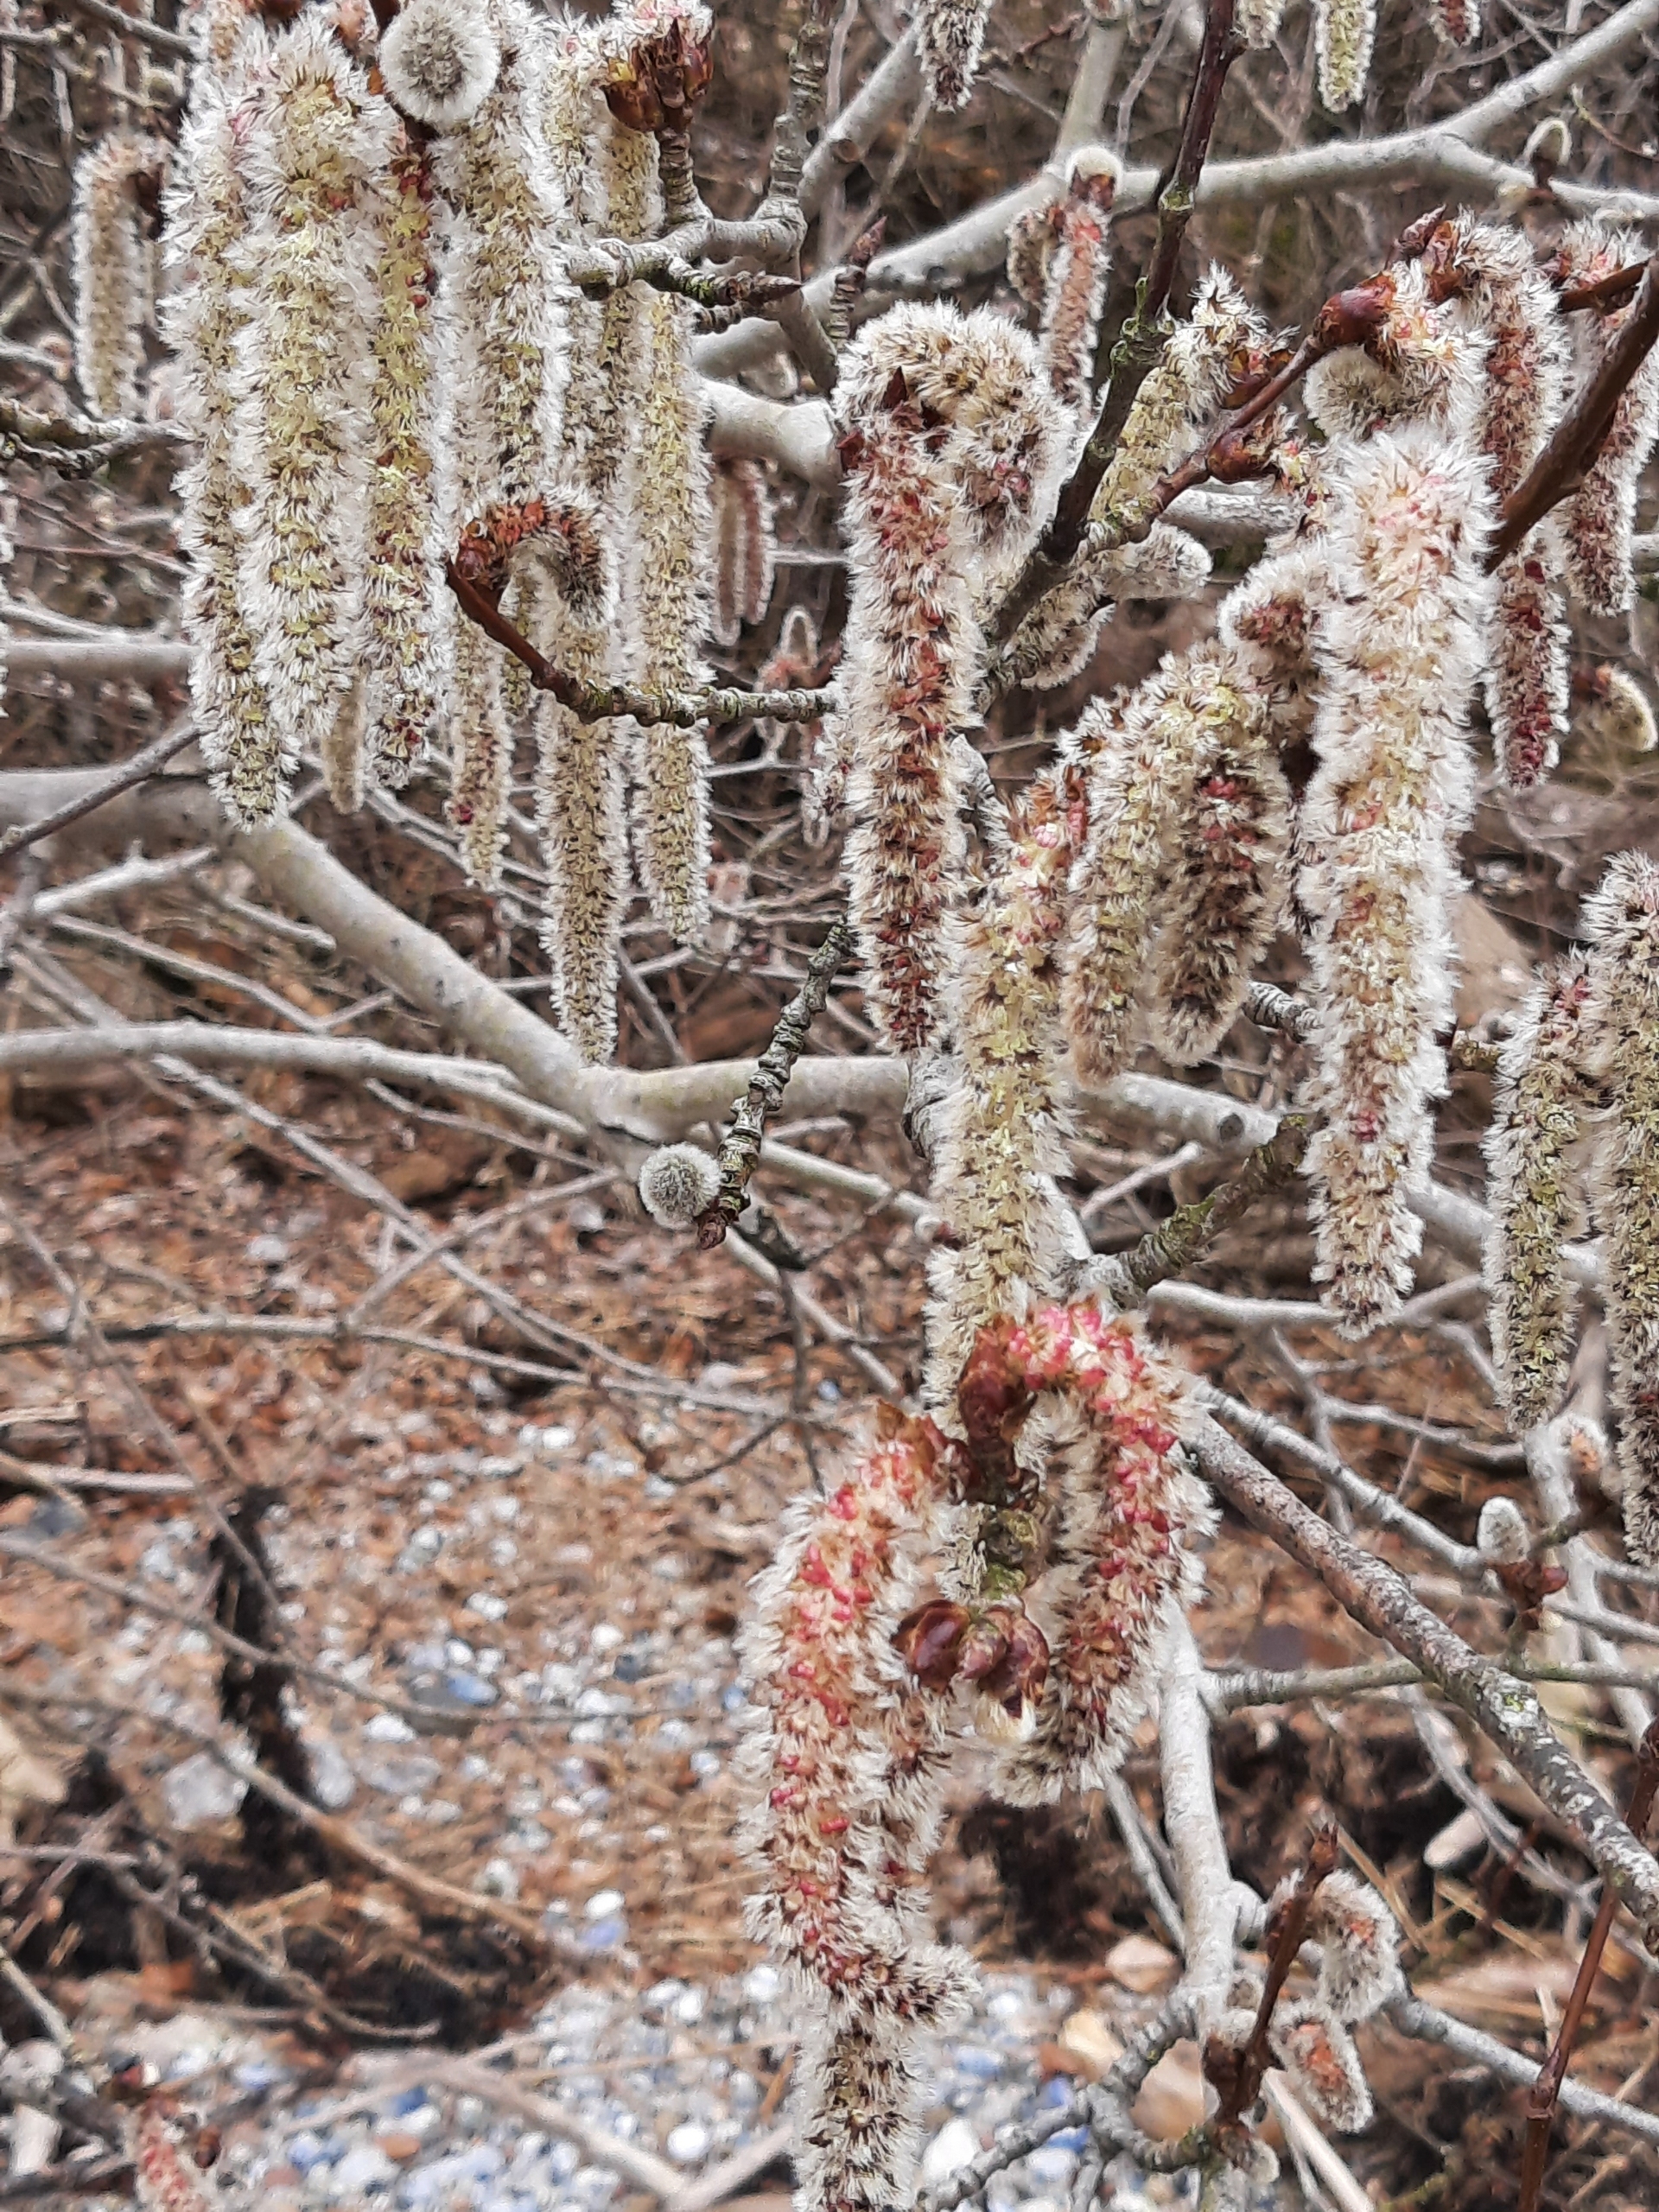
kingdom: Plantae
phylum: Tracheophyta
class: Magnoliopsida
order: Malpighiales
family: Salicaceae
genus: Populus
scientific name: Populus tremula
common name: Bævreasp
